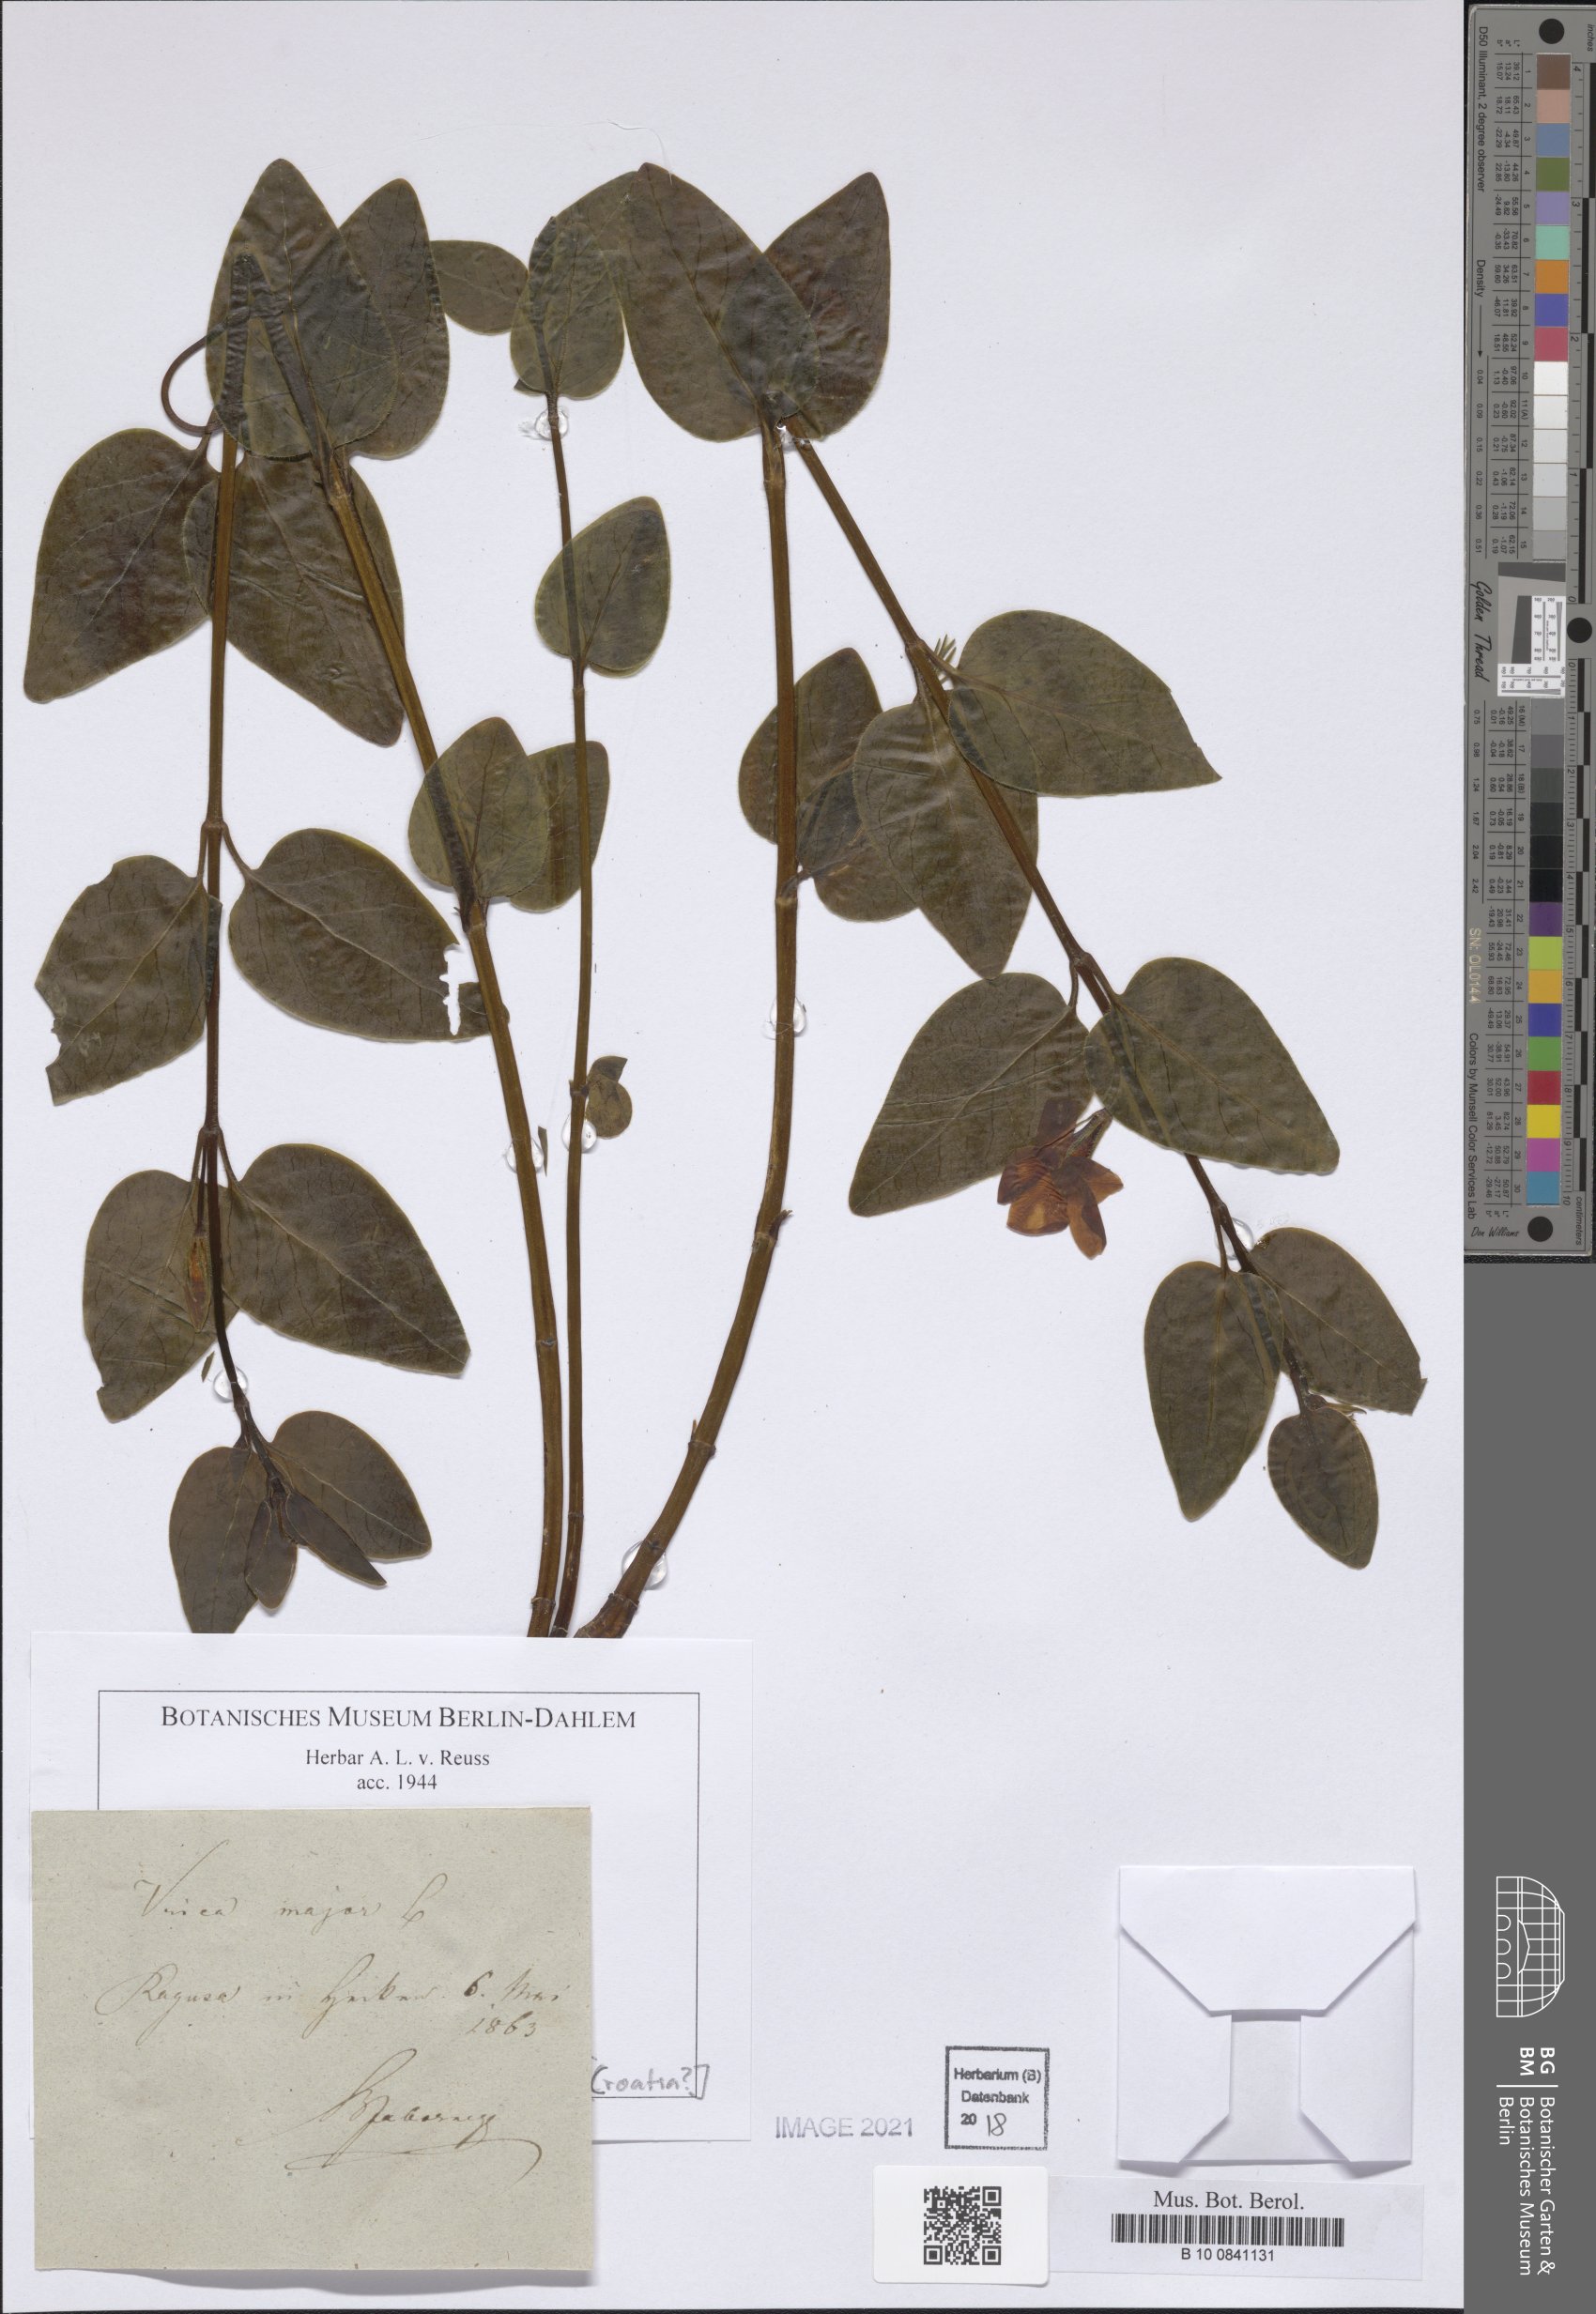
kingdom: Plantae
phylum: Tracheophyta
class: Magnoliopsida
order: Gentianales
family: Apocynaceae
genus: Vinca
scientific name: Vinca major
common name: Greater periwinkle
